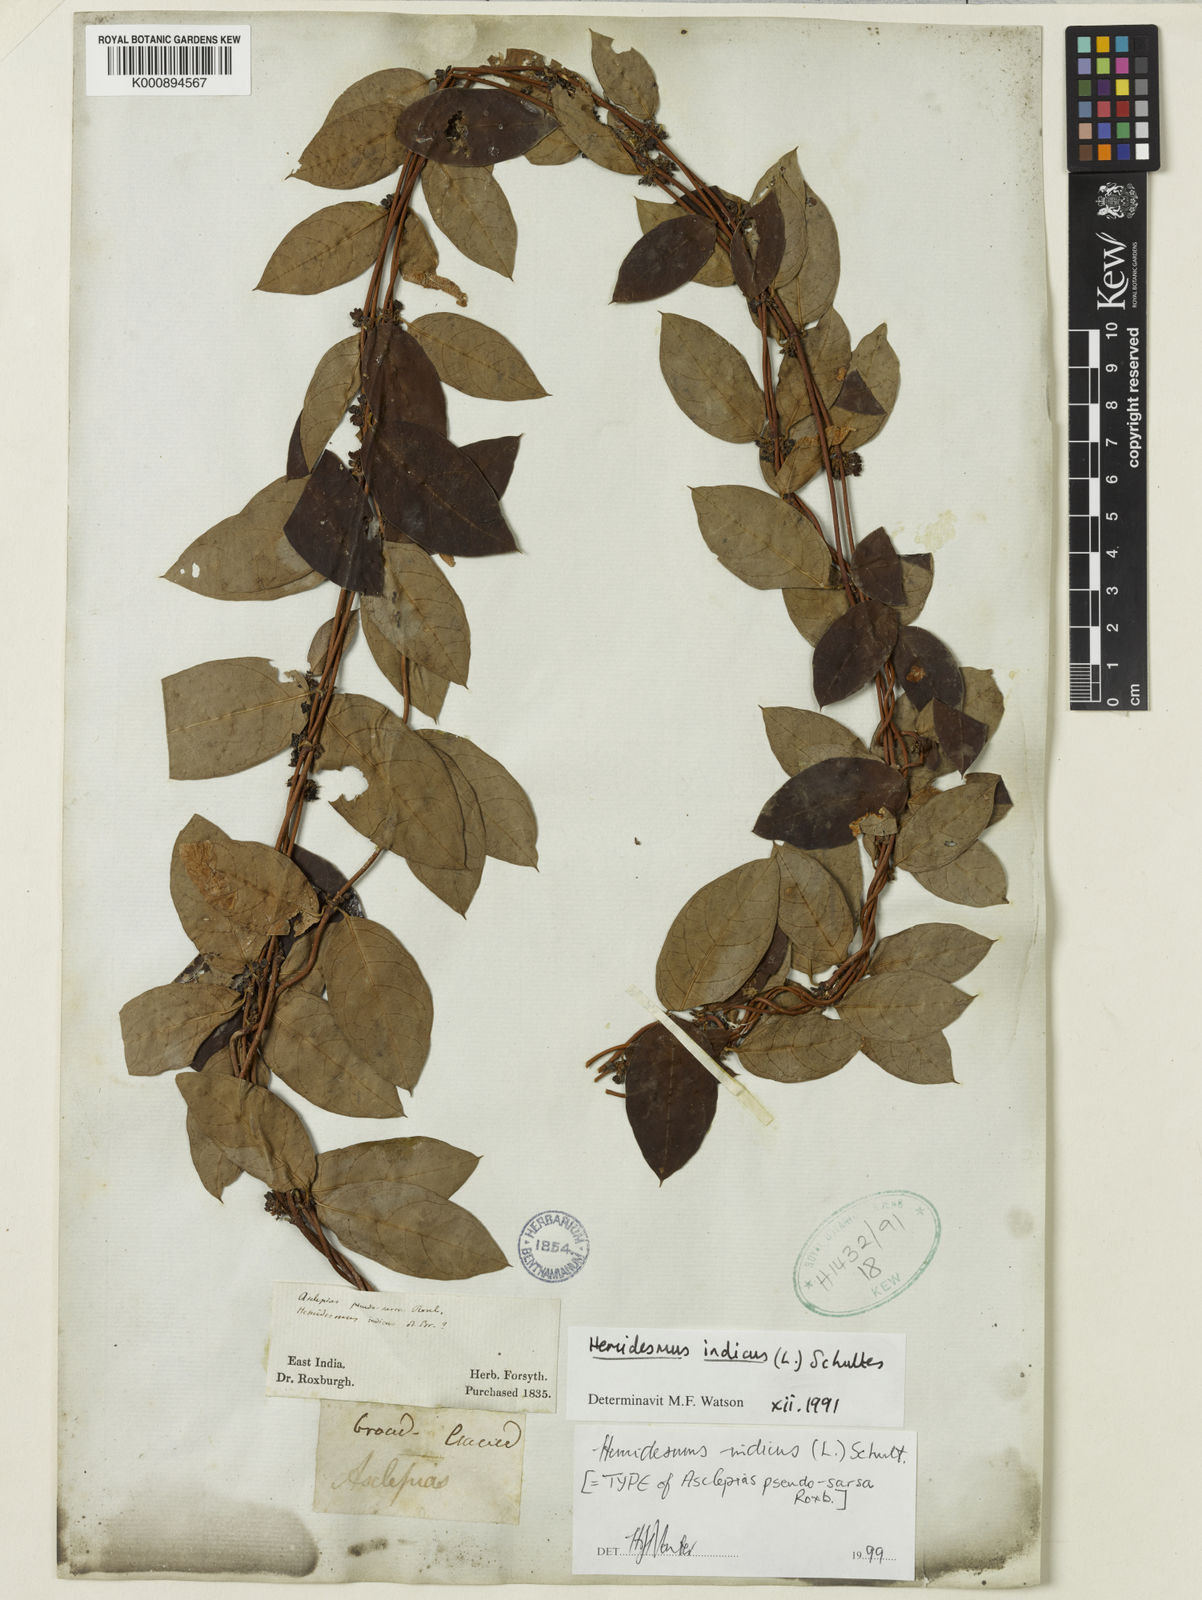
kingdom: Plantae
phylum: Tracheophyta
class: Magnoliopsida
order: Gentianales
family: Apocynaceae
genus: Hemidesmus
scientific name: Hemidesmus
